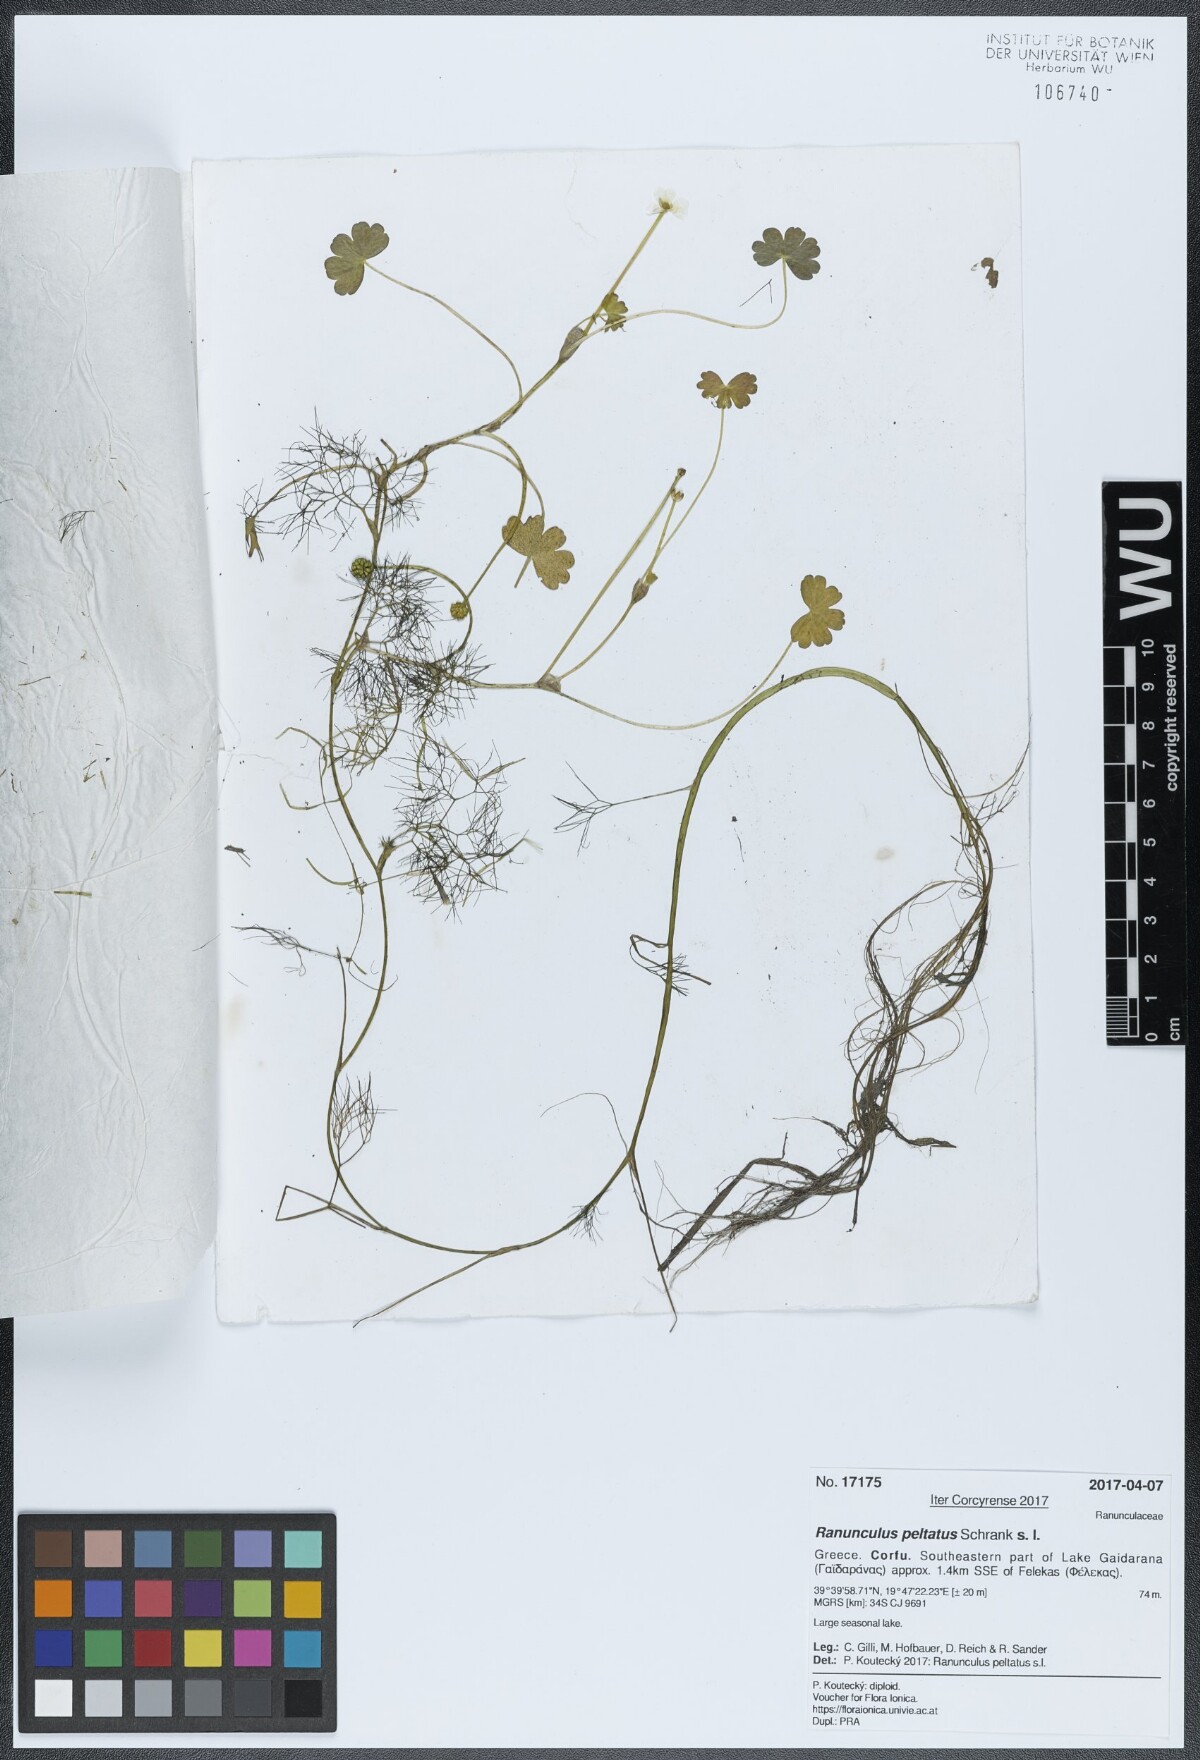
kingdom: Plantae
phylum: Tracheophyta
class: Magnoliopsida
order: Ranunculales
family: Ranunculaceae
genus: Ranunculus
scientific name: Ranunculus peltatus
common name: Pond water-crowfoot
